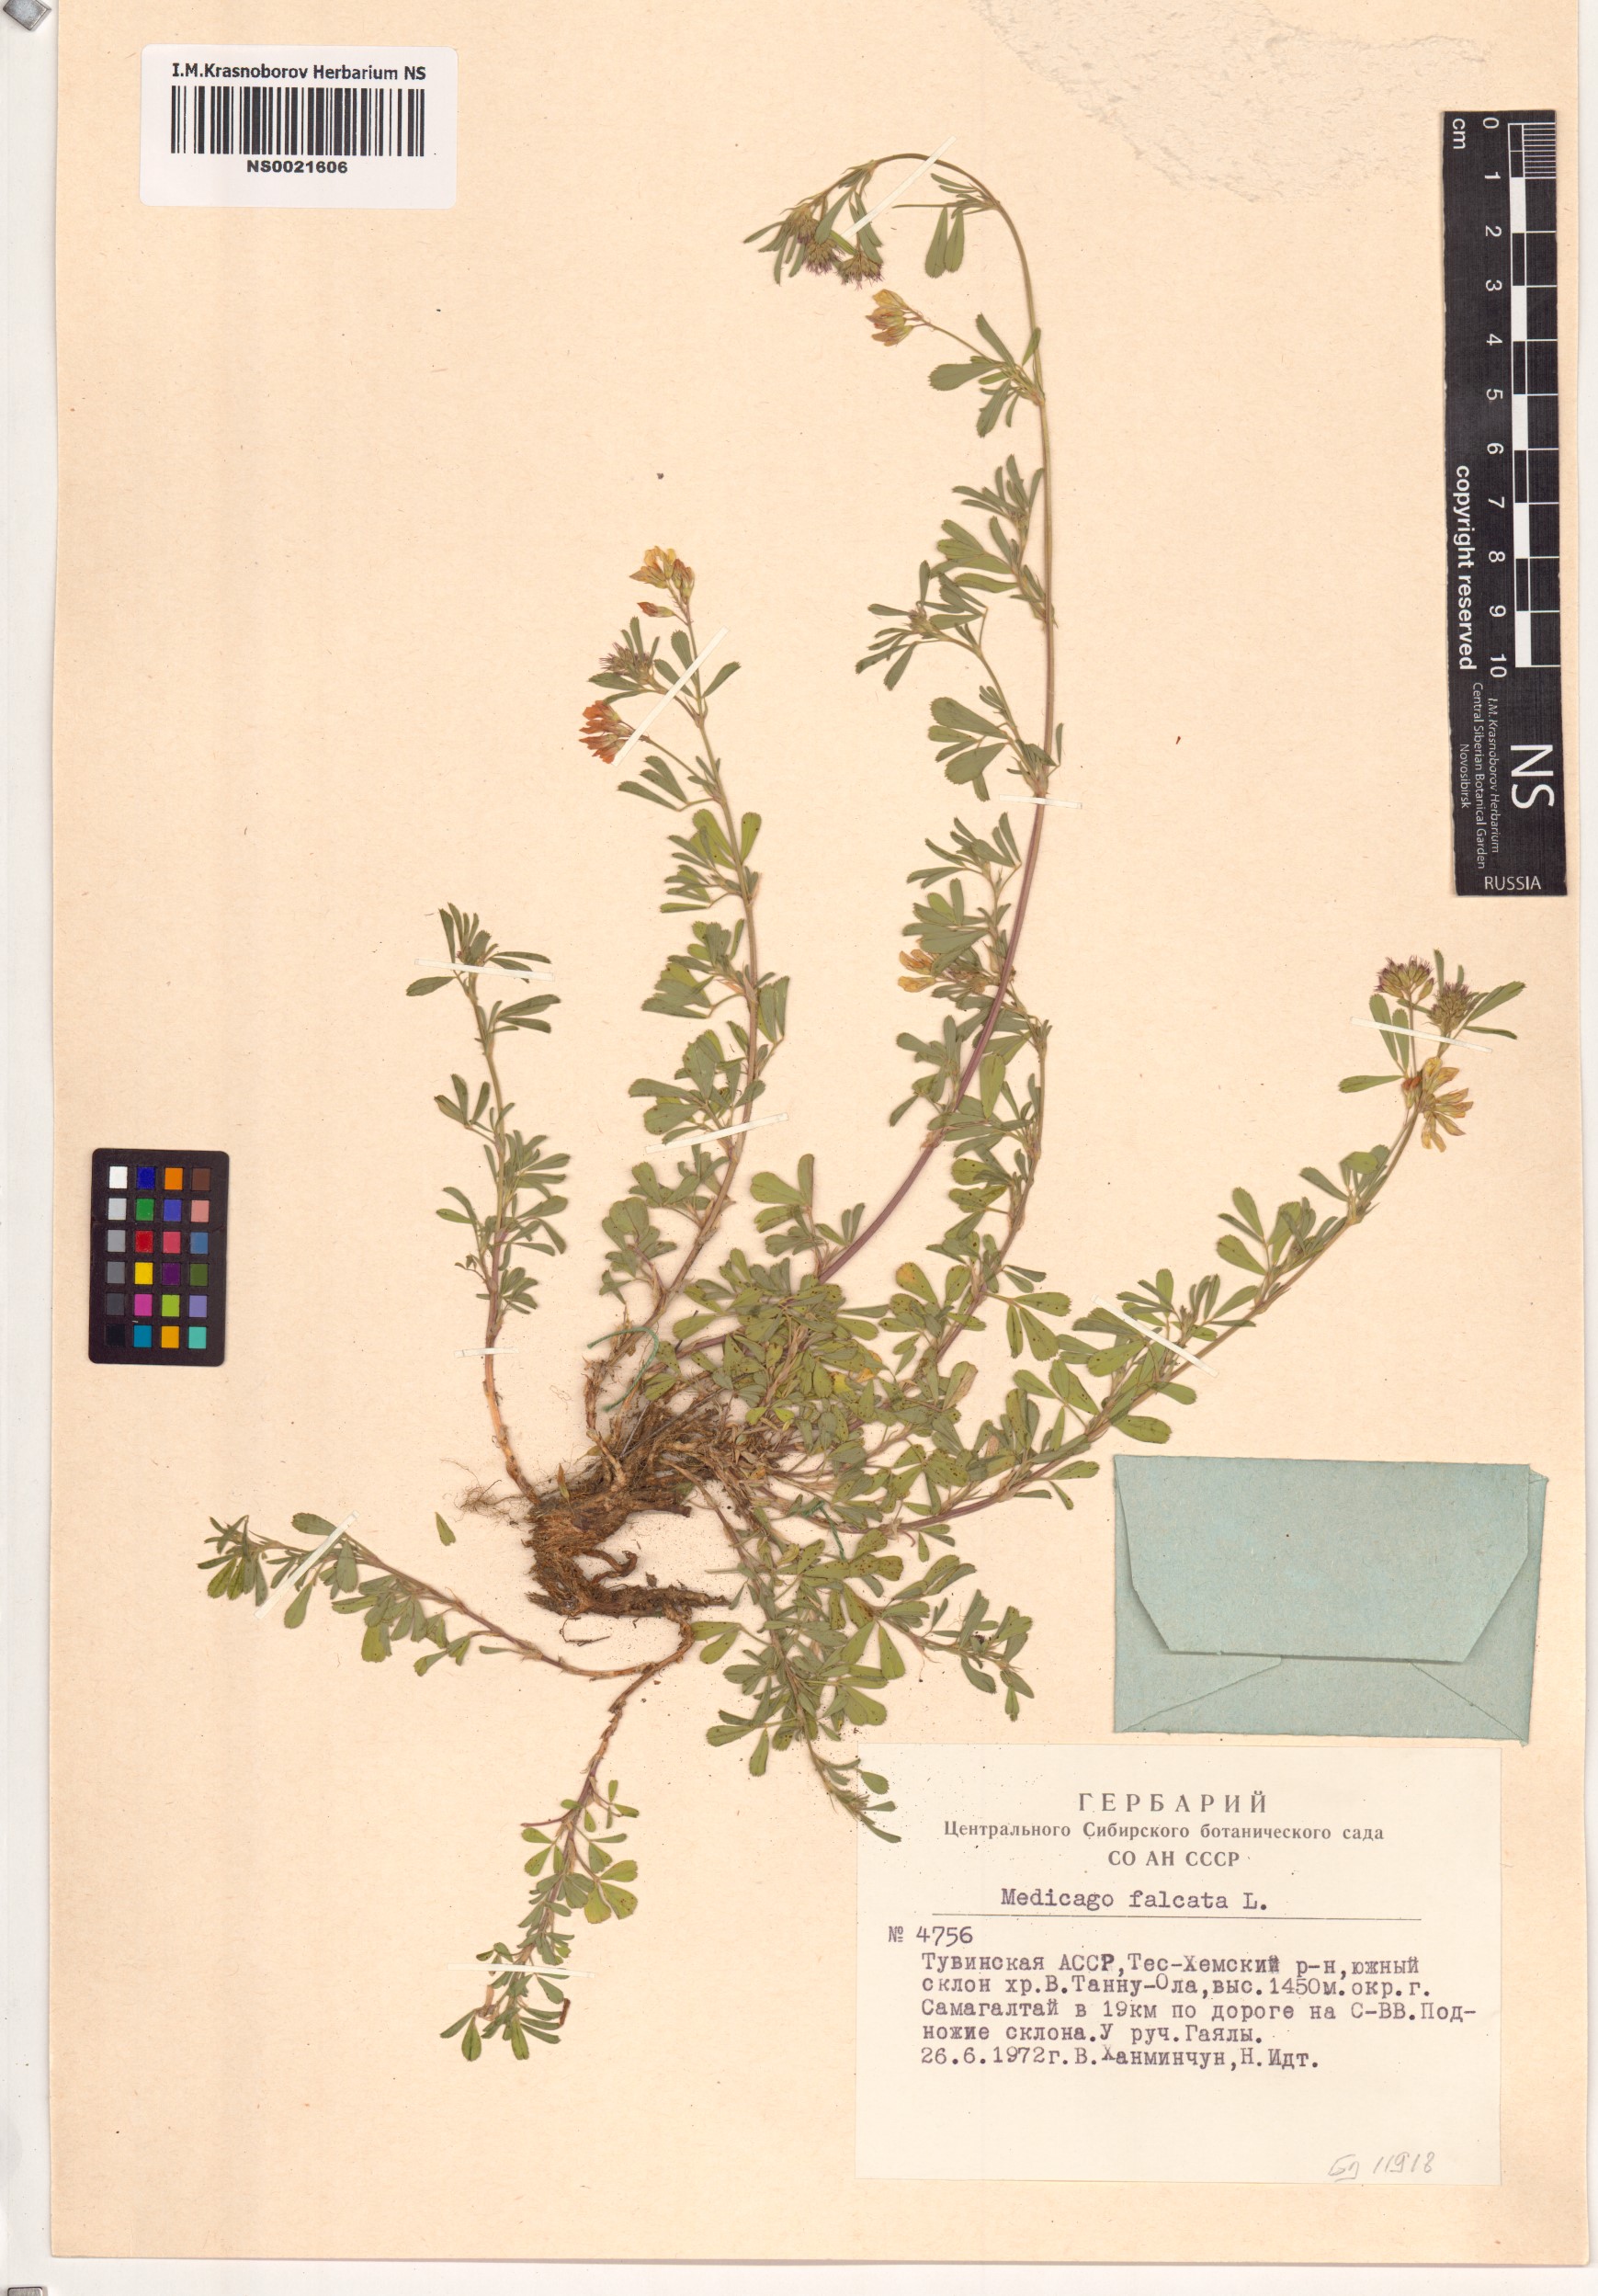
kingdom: Plantae
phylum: Tracheophyta
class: Magnoliopsida
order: Fabales
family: Fabaceae
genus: Medicago
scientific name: Medicago falcata
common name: Sickle medick
